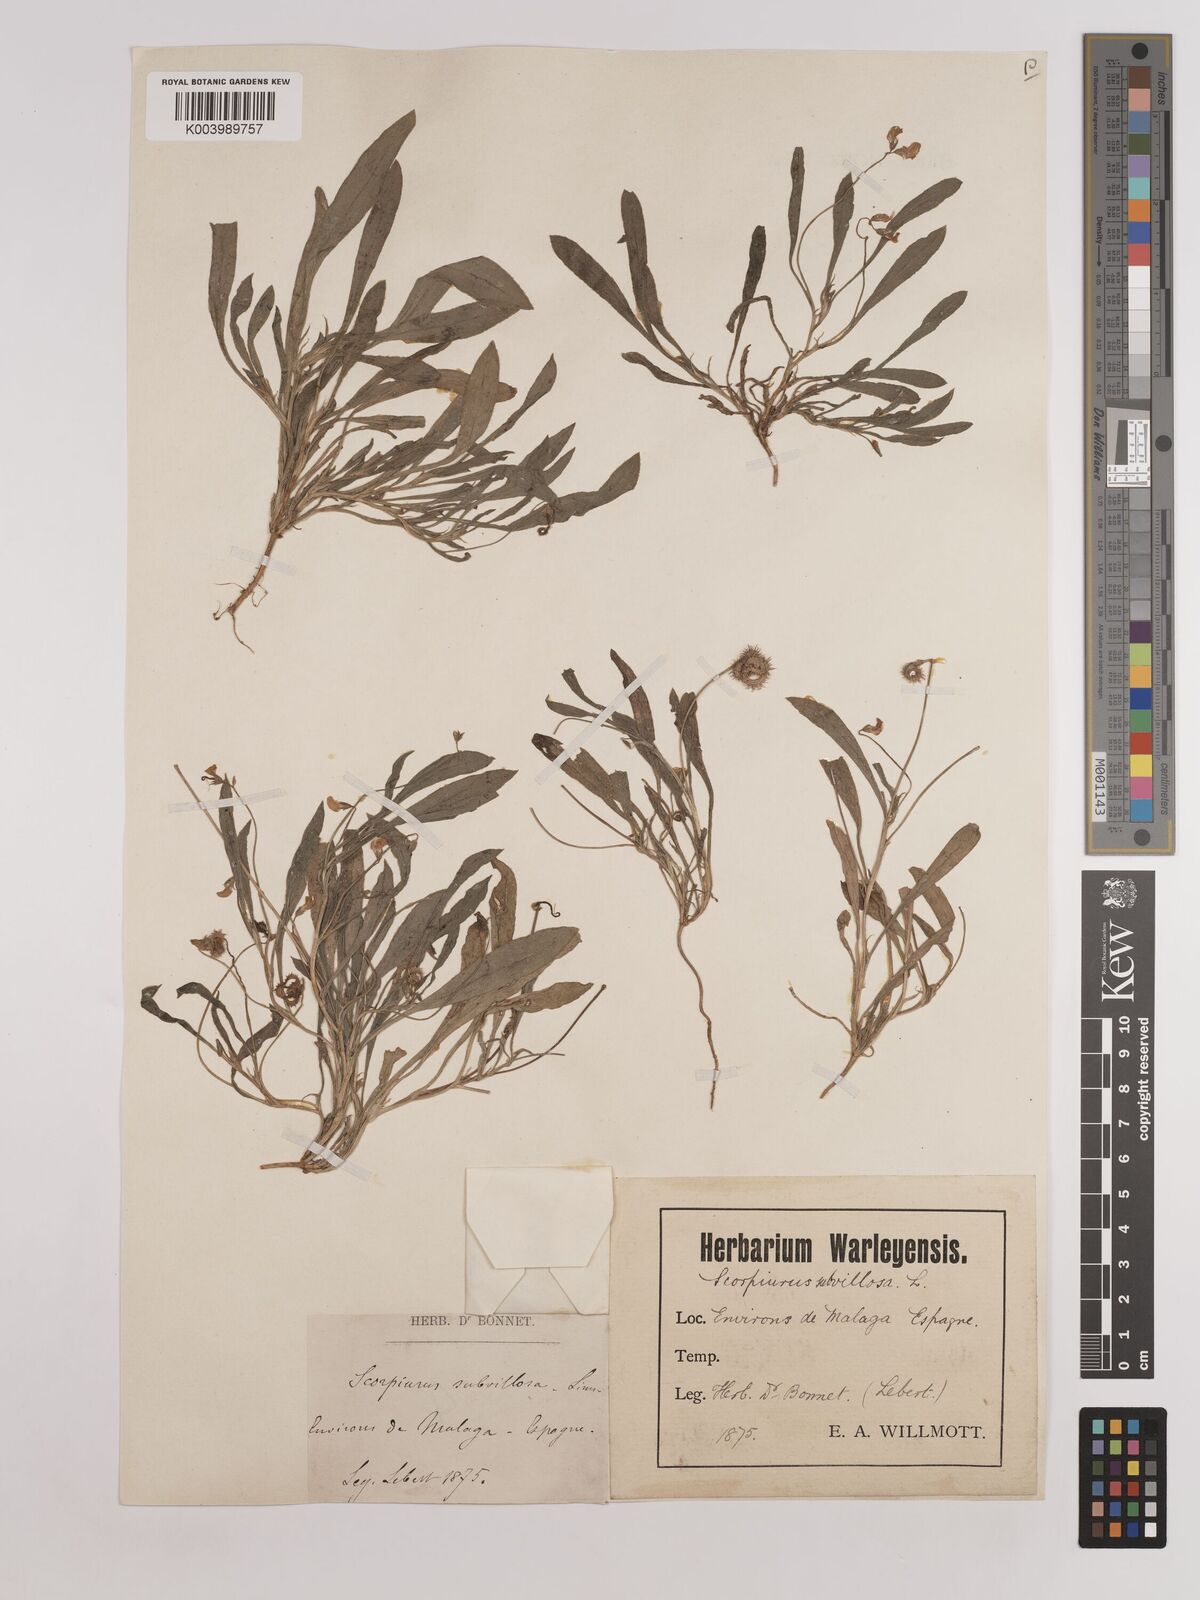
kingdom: Plantae
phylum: Tracheophyta
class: Magnoliopsida
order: Fabales
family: Fabaceae
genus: Scorpiurus
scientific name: Scorpiurus muricatus
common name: Caterpillar-plant
